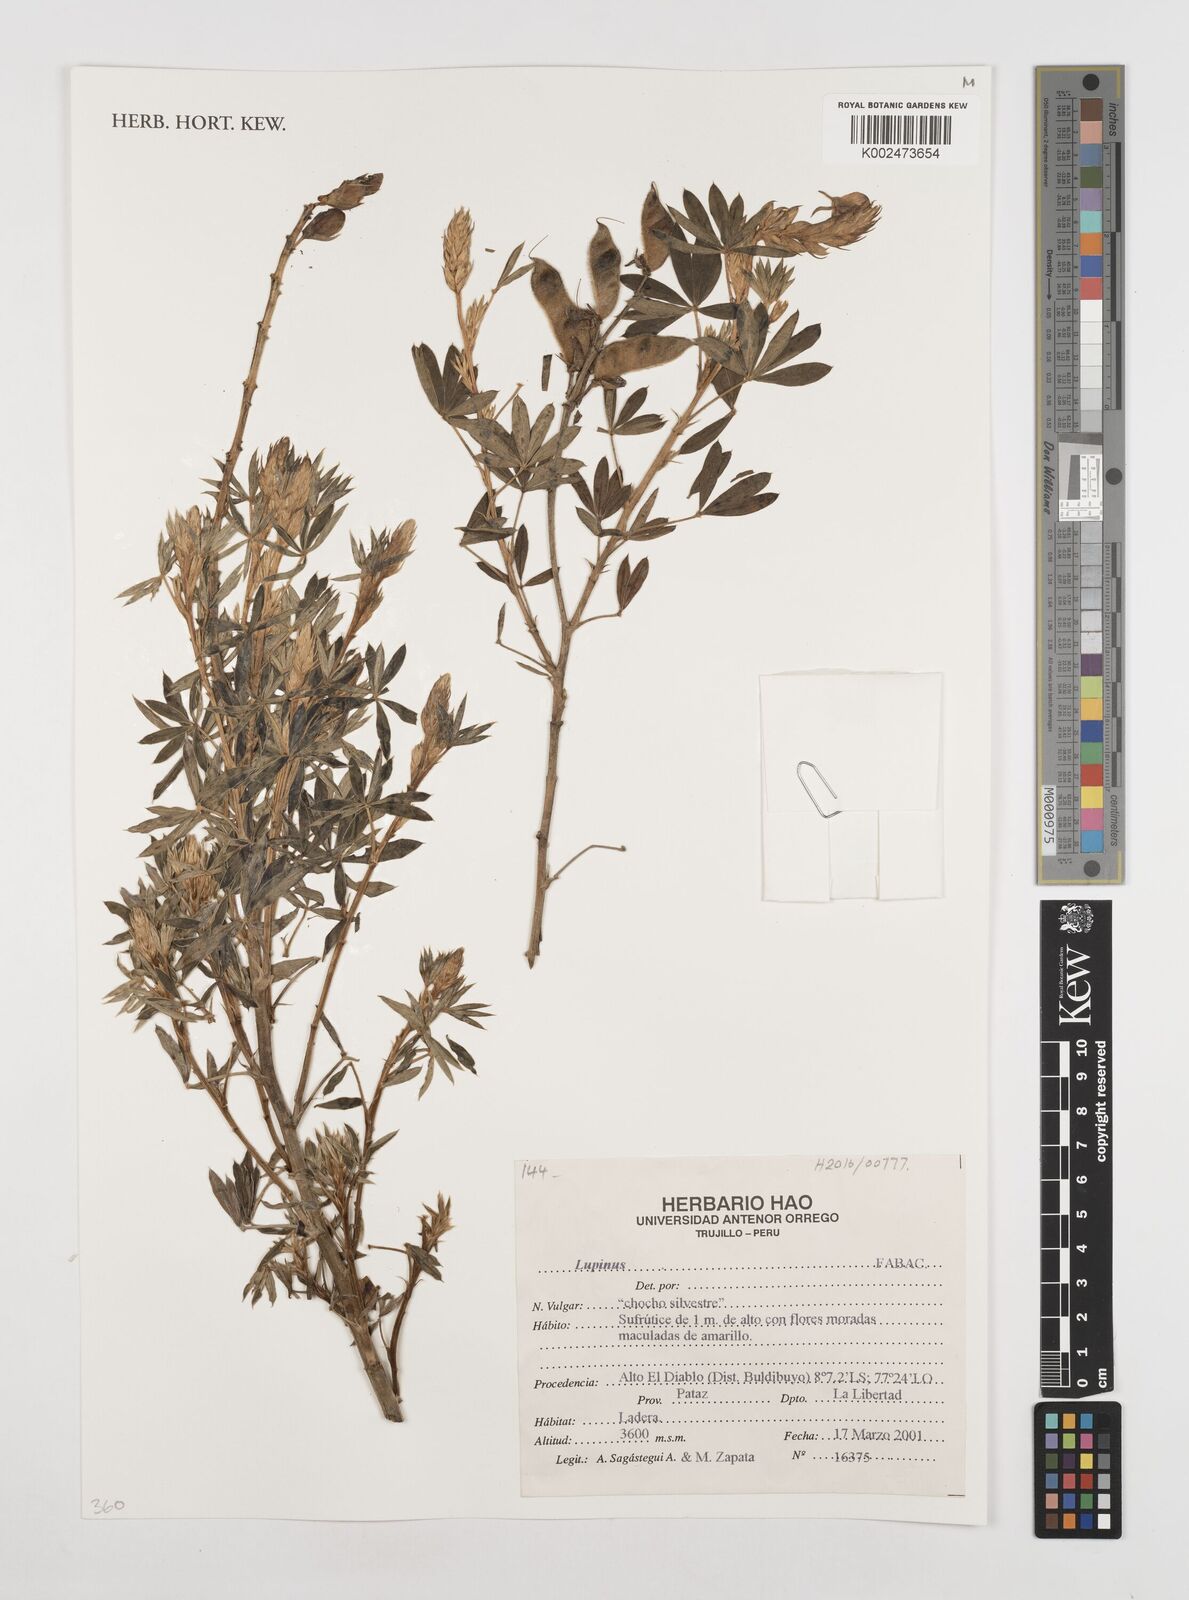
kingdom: Plantae
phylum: Tracheophyta
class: Magnoliopsida
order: Fabales
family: Fabaceae
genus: Lupinus
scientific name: Lupinus
